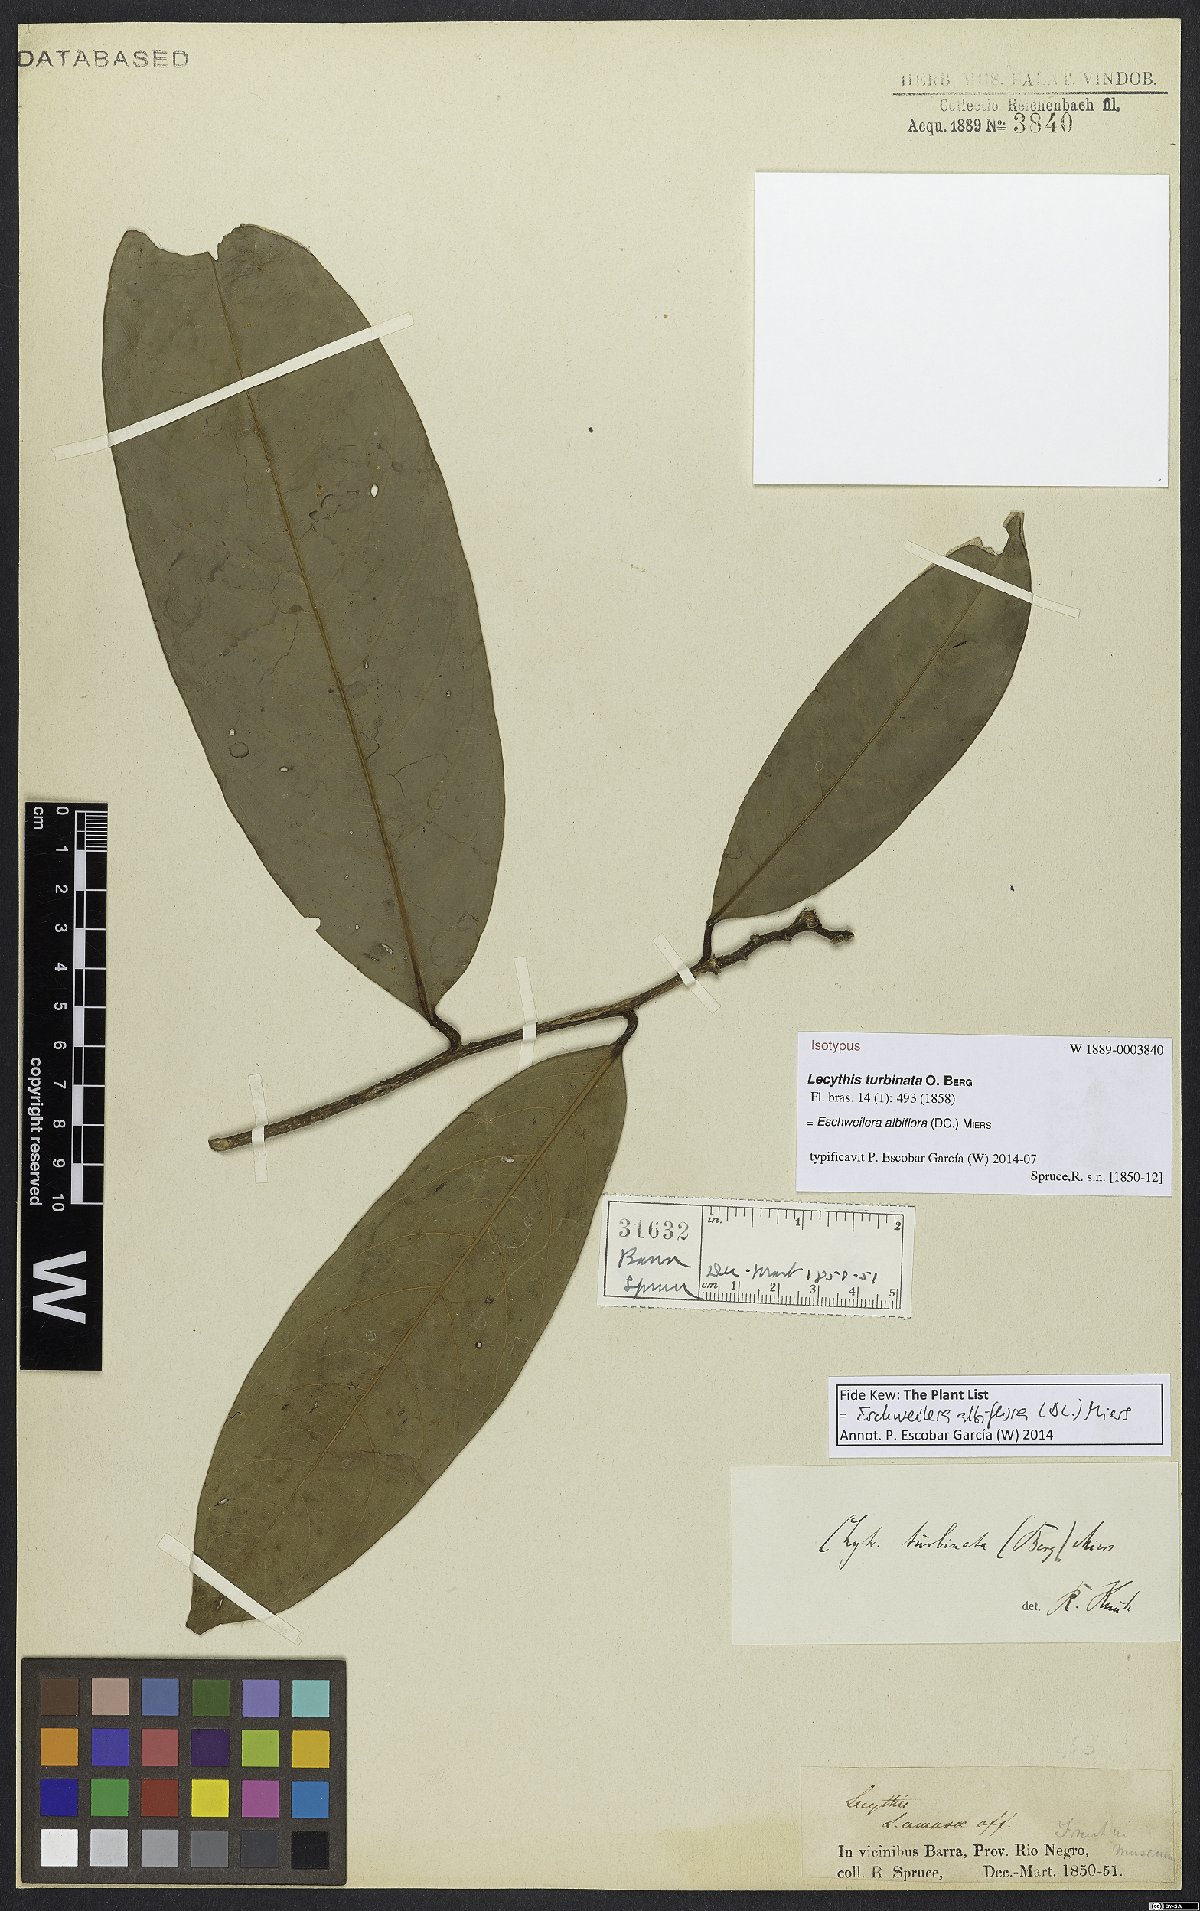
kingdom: Plantae
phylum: Tracheophyta
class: Magnoliopsida
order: Ericales
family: Lecythidaceae
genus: Eschweilera
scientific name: Eschweilera albiflora
